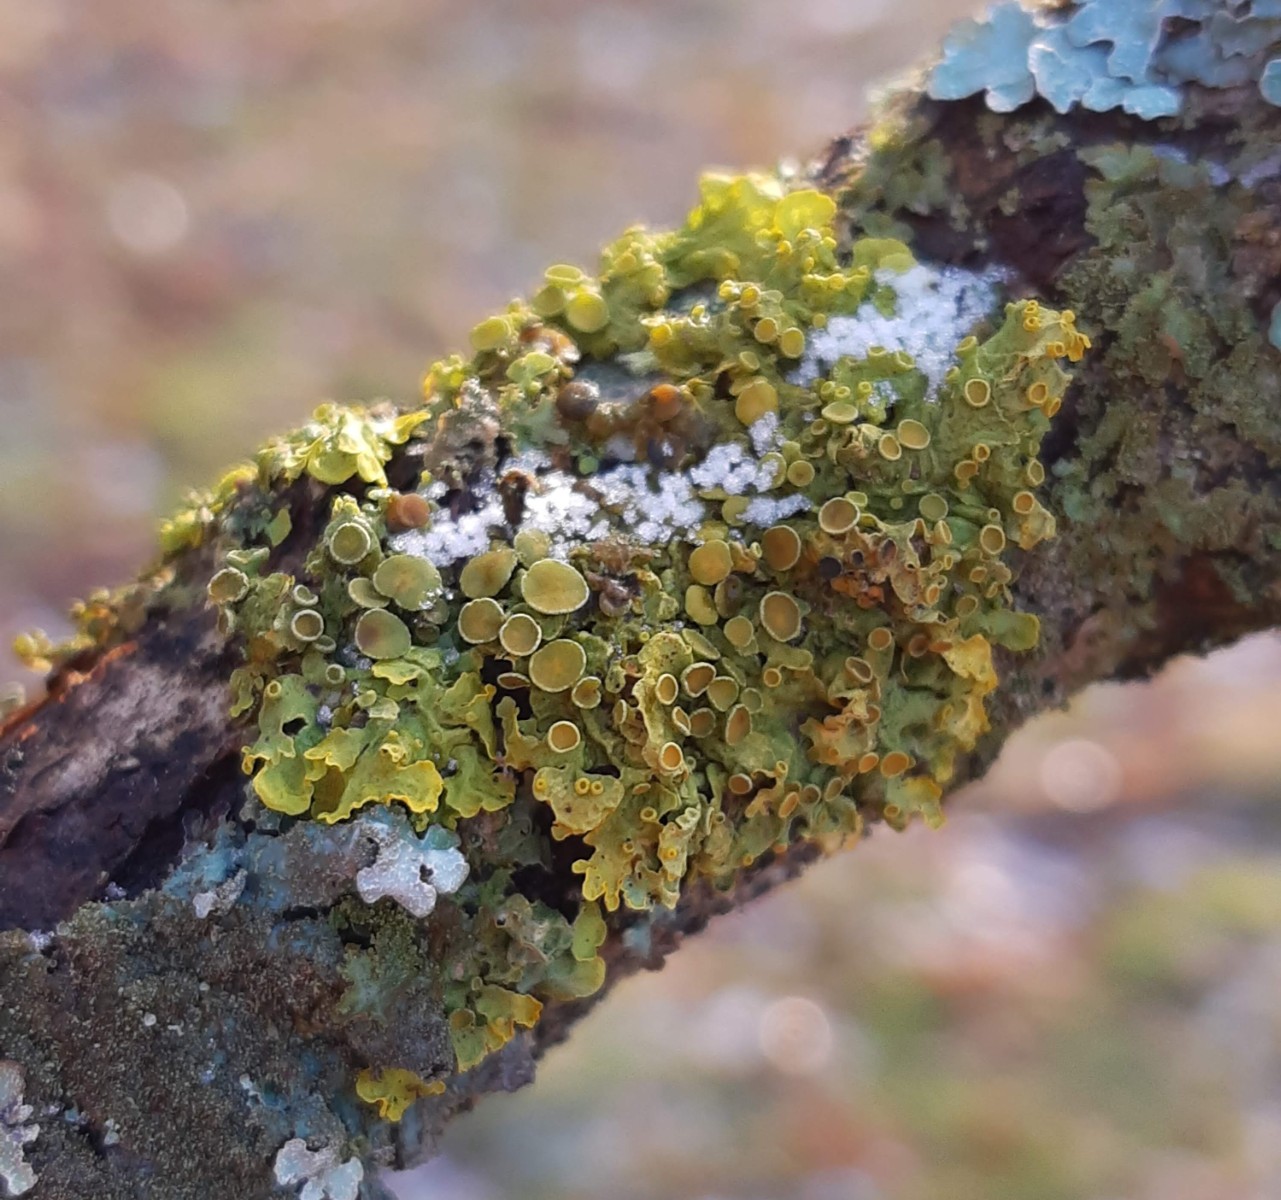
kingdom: Fungi
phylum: Ascomycota
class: Lecanoromycetes
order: Teloschistales
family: Teloschistaceae
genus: Xanthoria
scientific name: Xanthoria parietina
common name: almindelig væggelav
